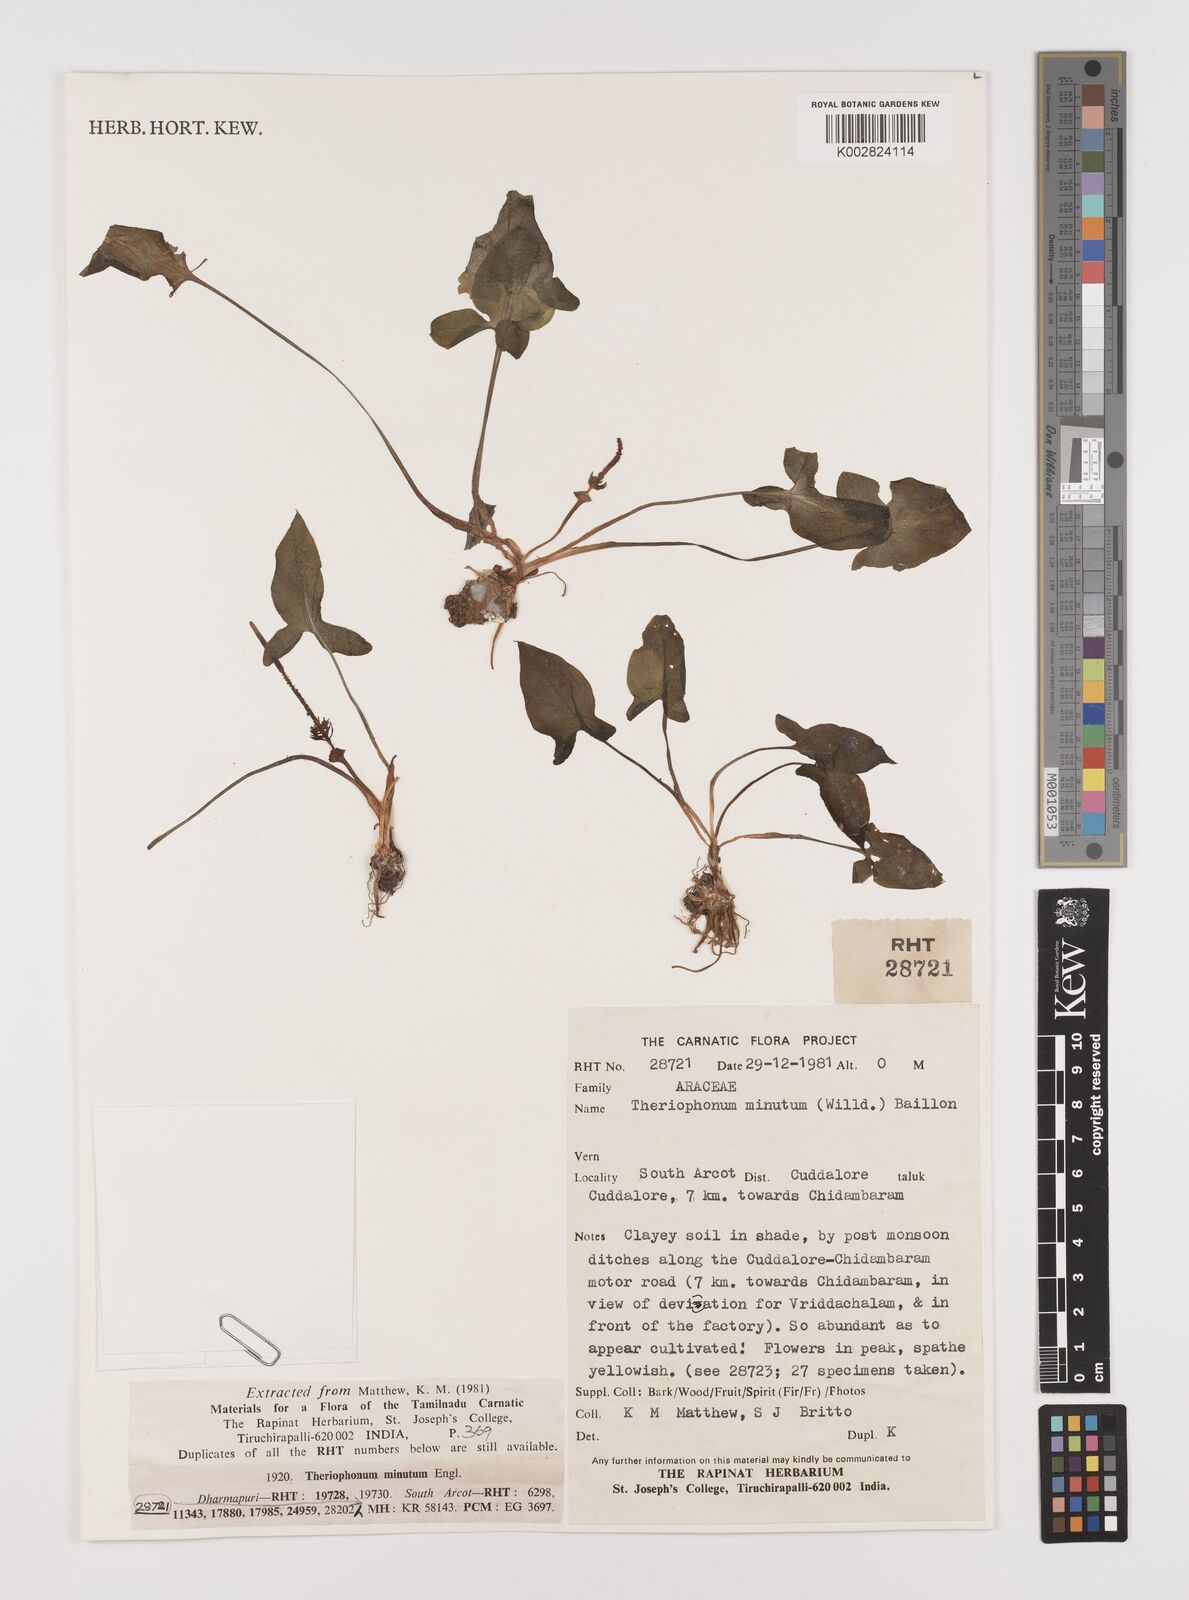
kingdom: Plantae
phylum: Tracheophyta
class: Liliopsida
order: Alismatales
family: Araceae
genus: Theriophonum
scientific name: Theriophonum minutum
